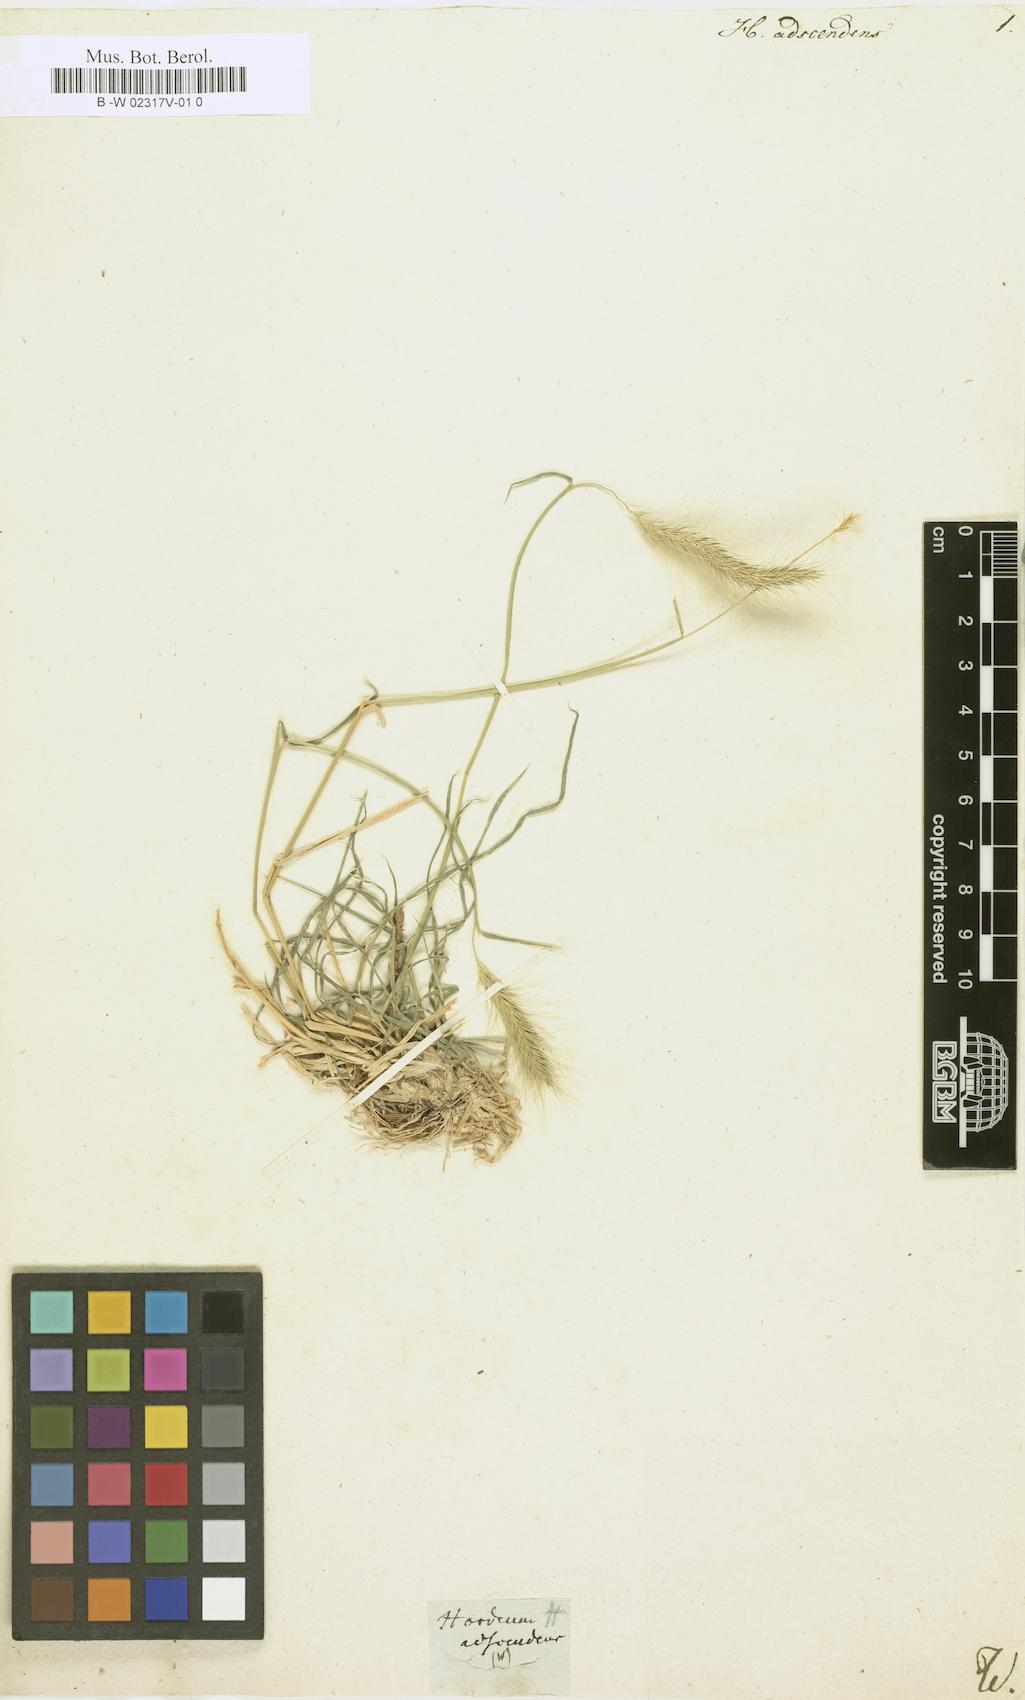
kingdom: Plantae
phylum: Tracheophyta
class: Liliopsida
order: Poales
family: Poaceae
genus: Hordeum
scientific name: Hordeum jubatum
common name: Foxtail barley
